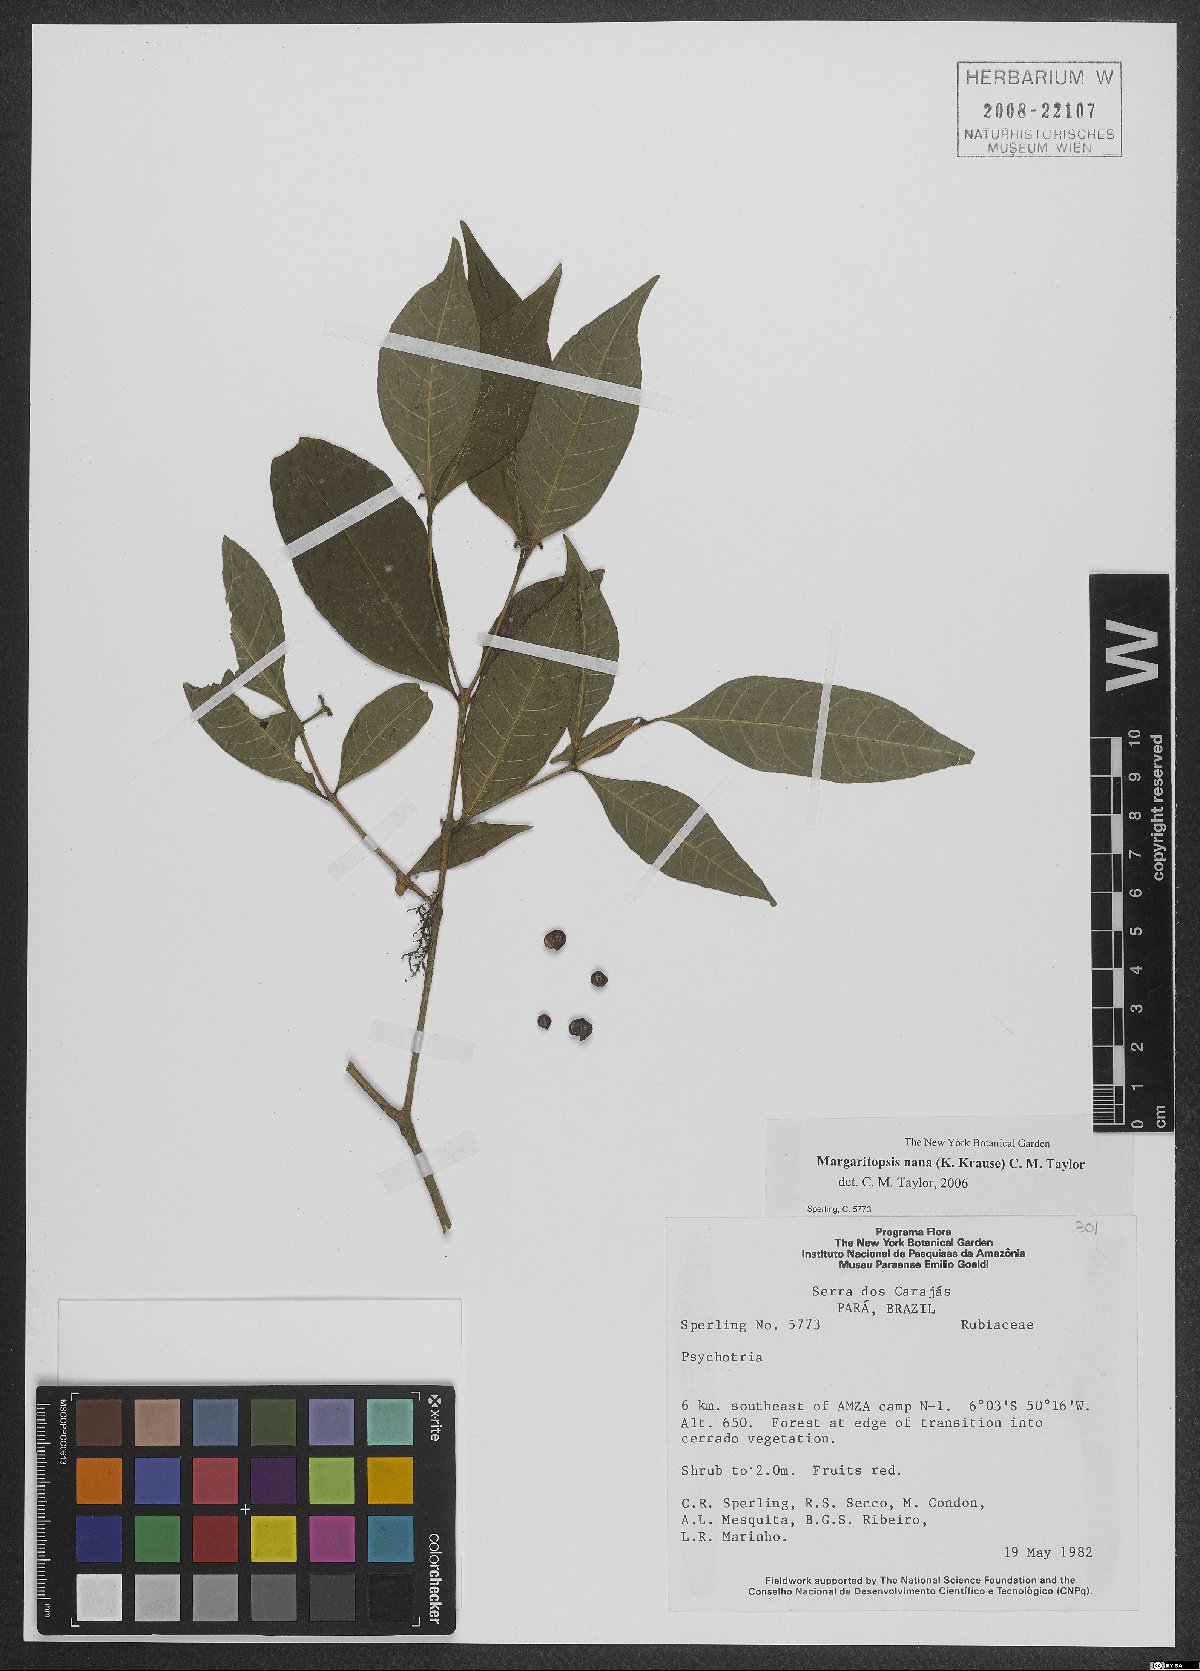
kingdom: Plantae
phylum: Tracheophyta
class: Magnoliopsida
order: Gentianales
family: Rubiaceae
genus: Eumachia
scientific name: Eumachia nana
